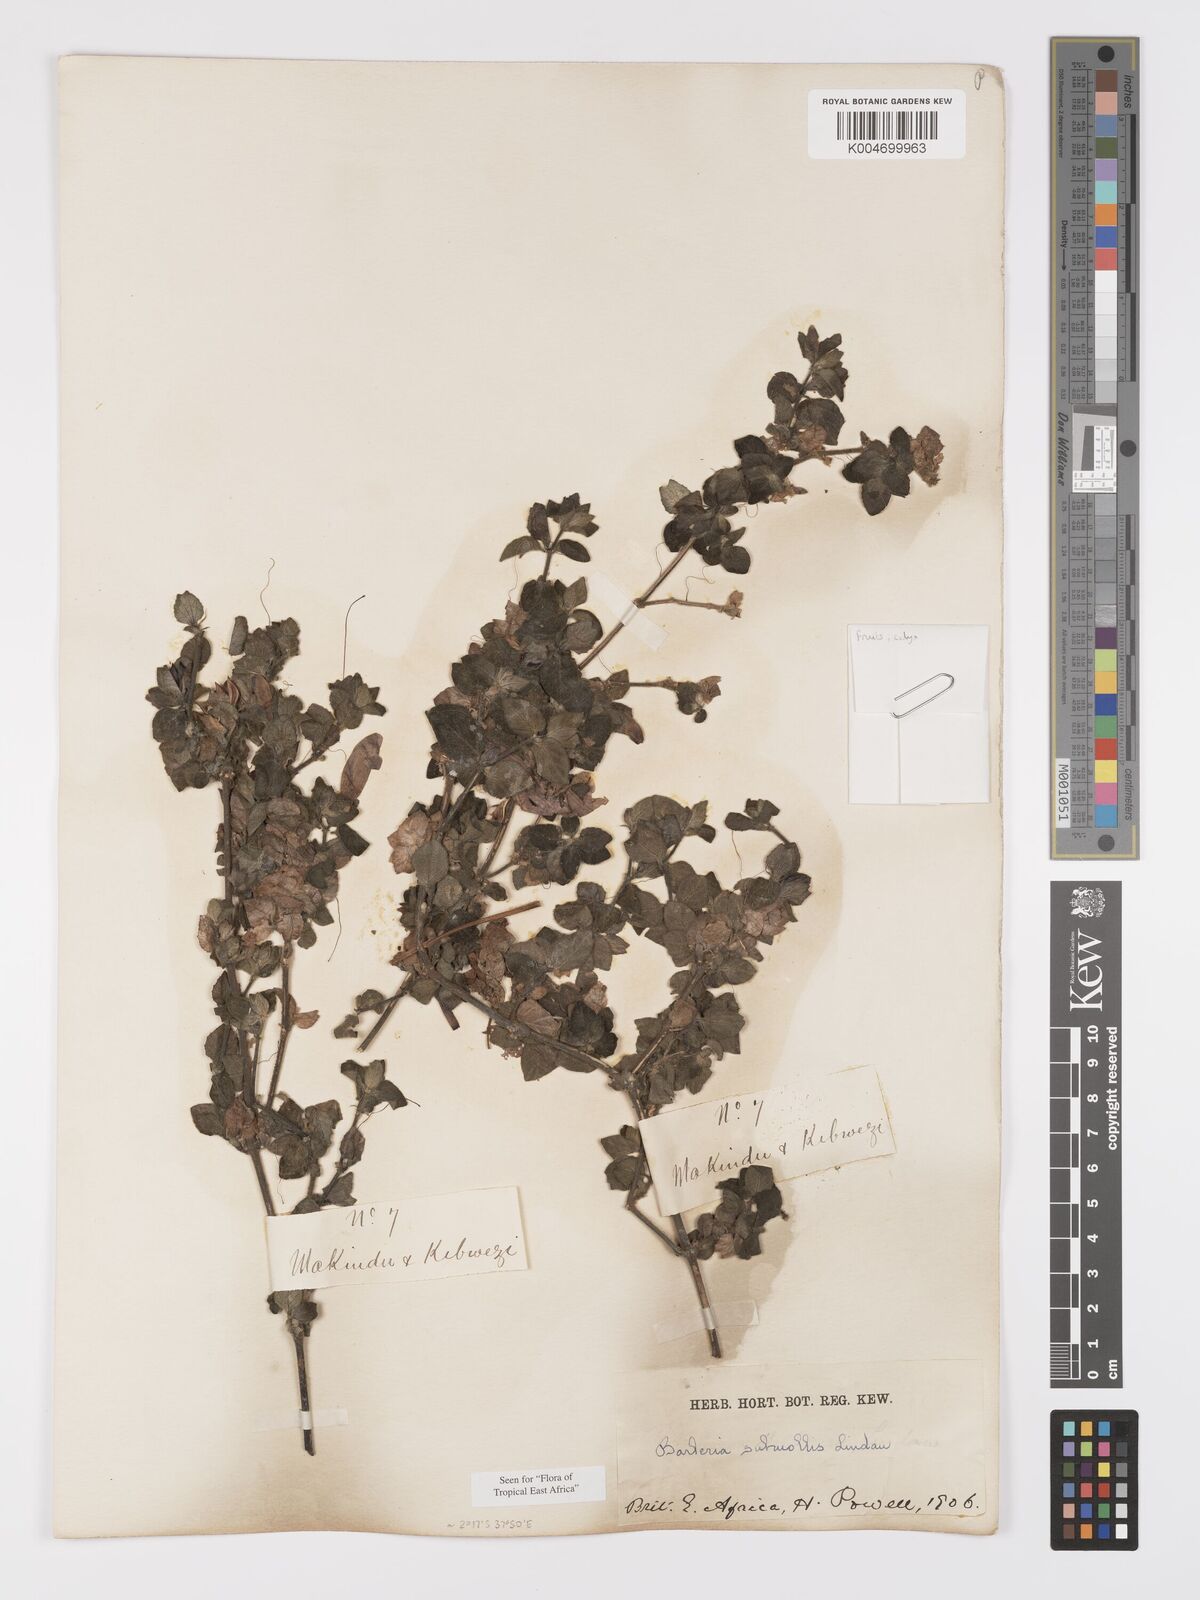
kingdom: Plantae
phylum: Tracheophyta
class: Magnoliopsida
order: Lamiales
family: Acanthaceae
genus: Barleria
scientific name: Barleria submollis
